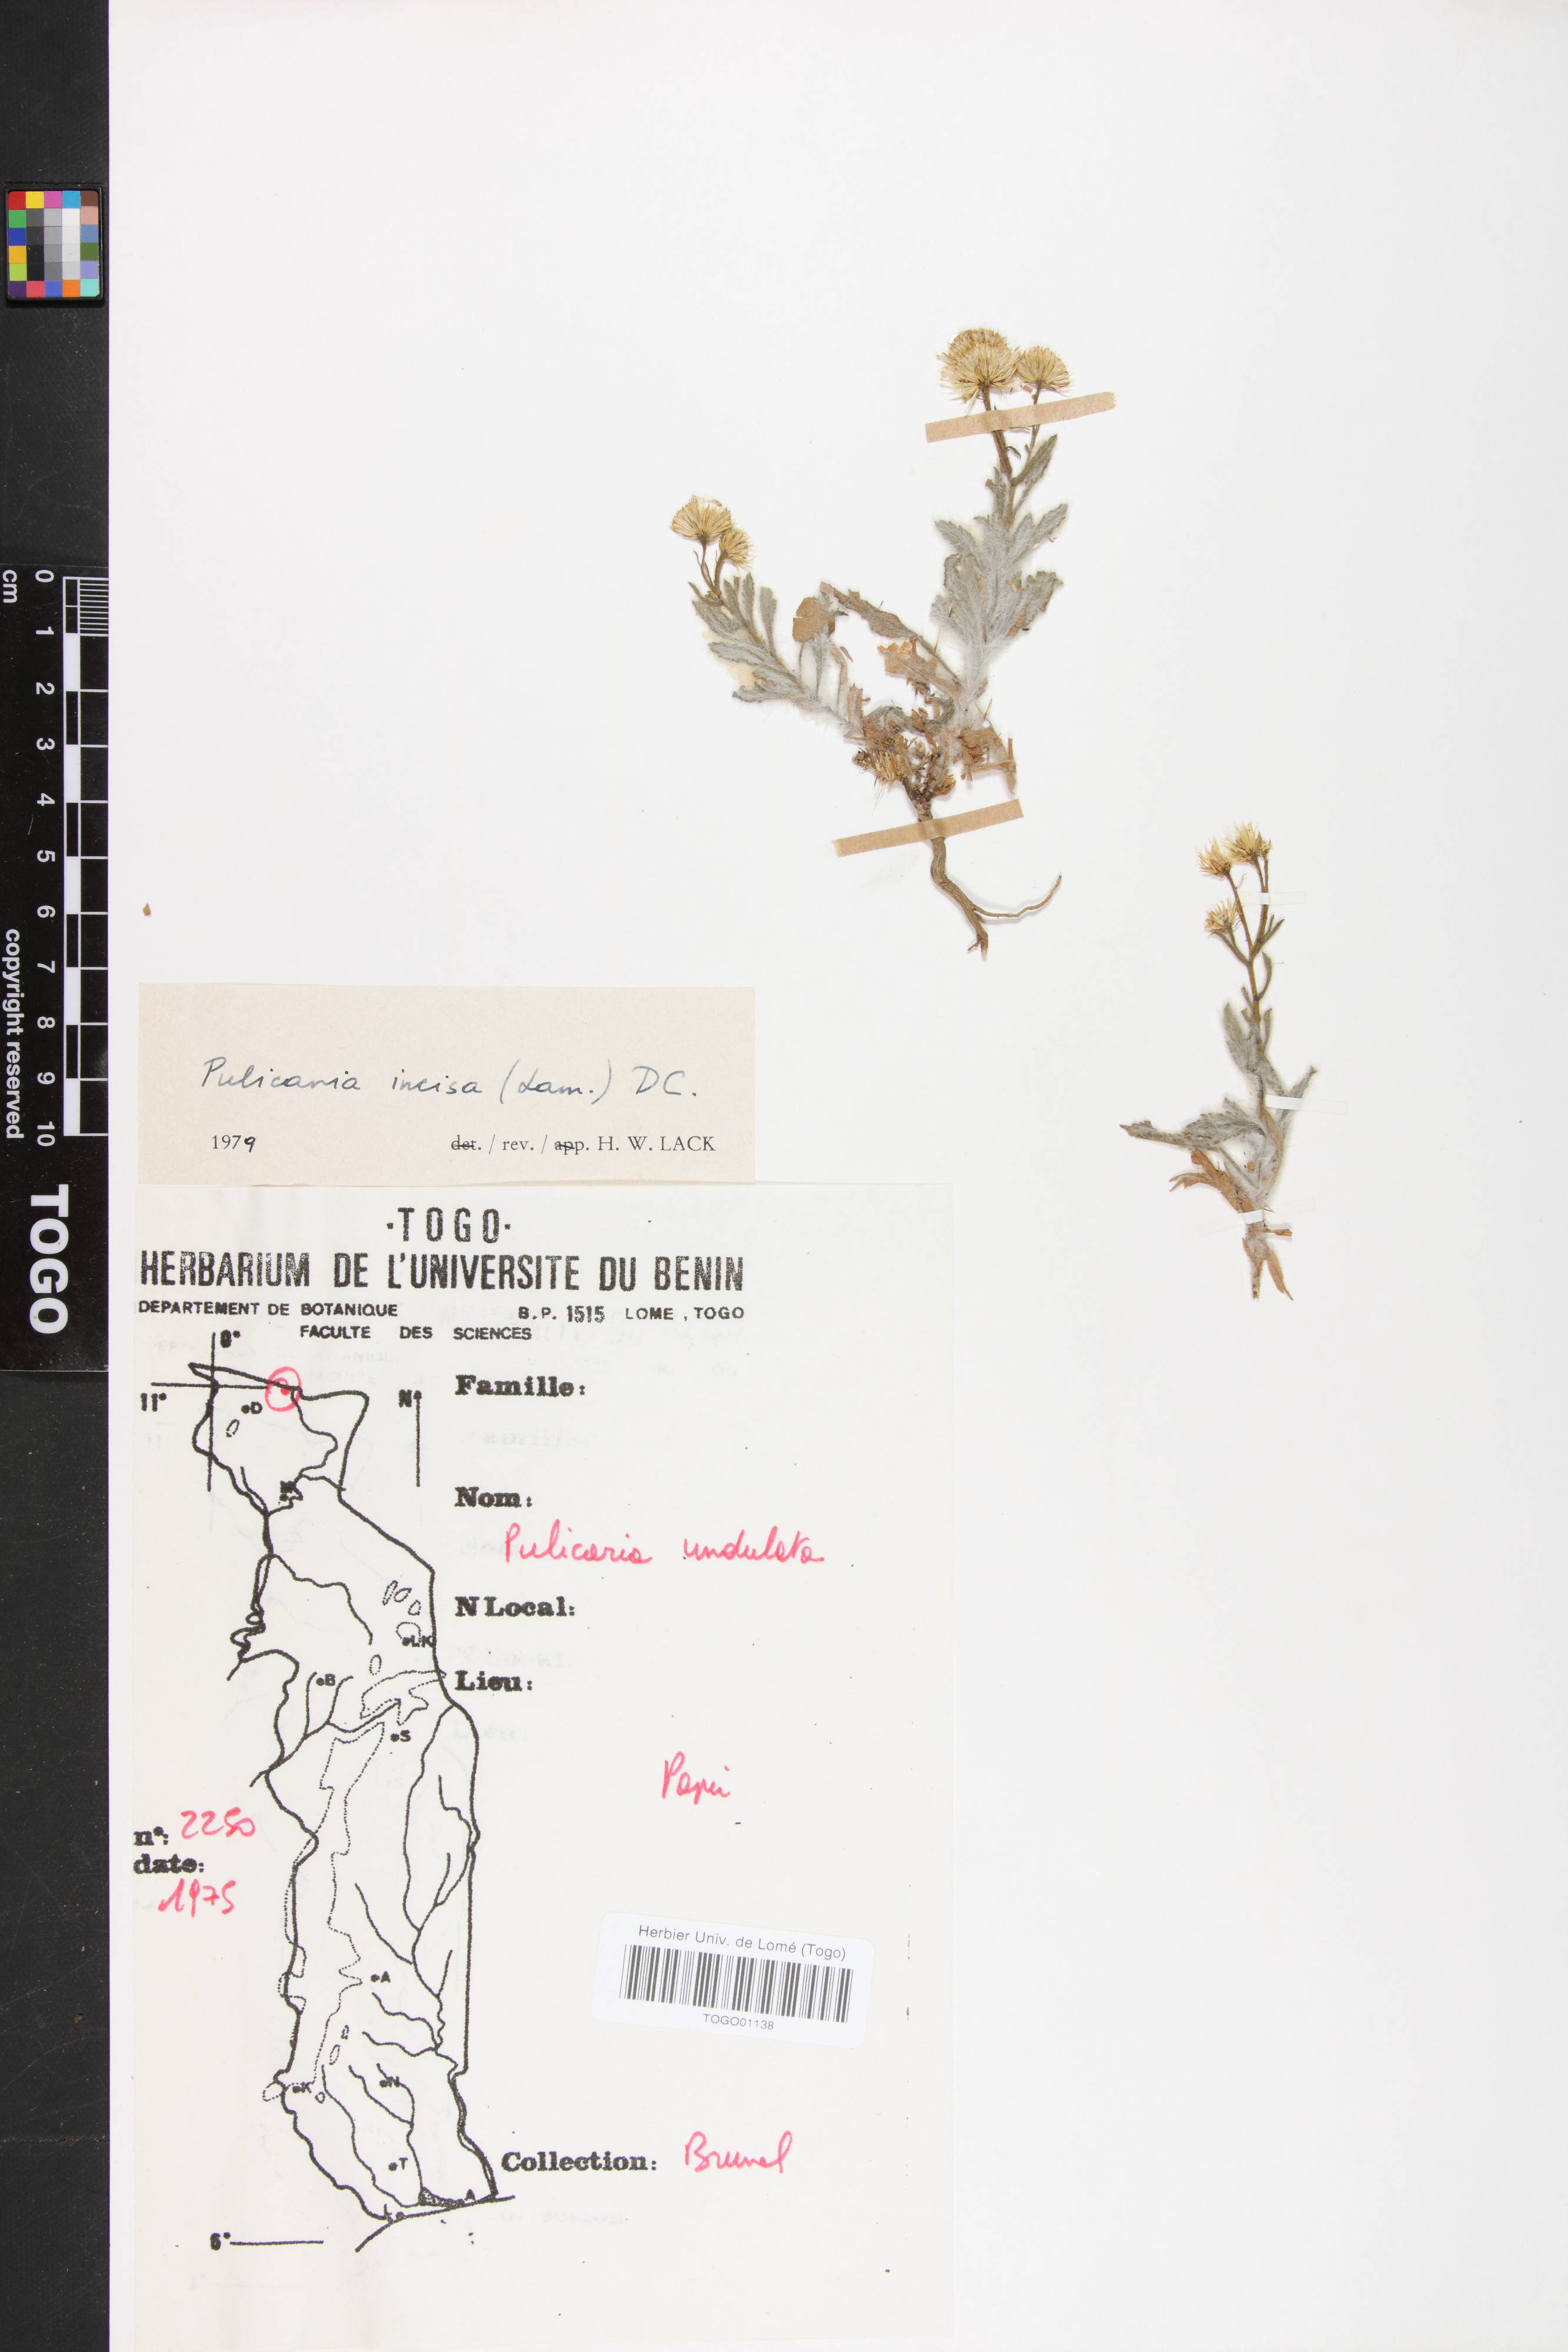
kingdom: Plantae
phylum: Tracheophyta
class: Magnoliopsida
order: Asterales
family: Asteraceae
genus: Pulicaria
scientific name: Pulicaria incisa
